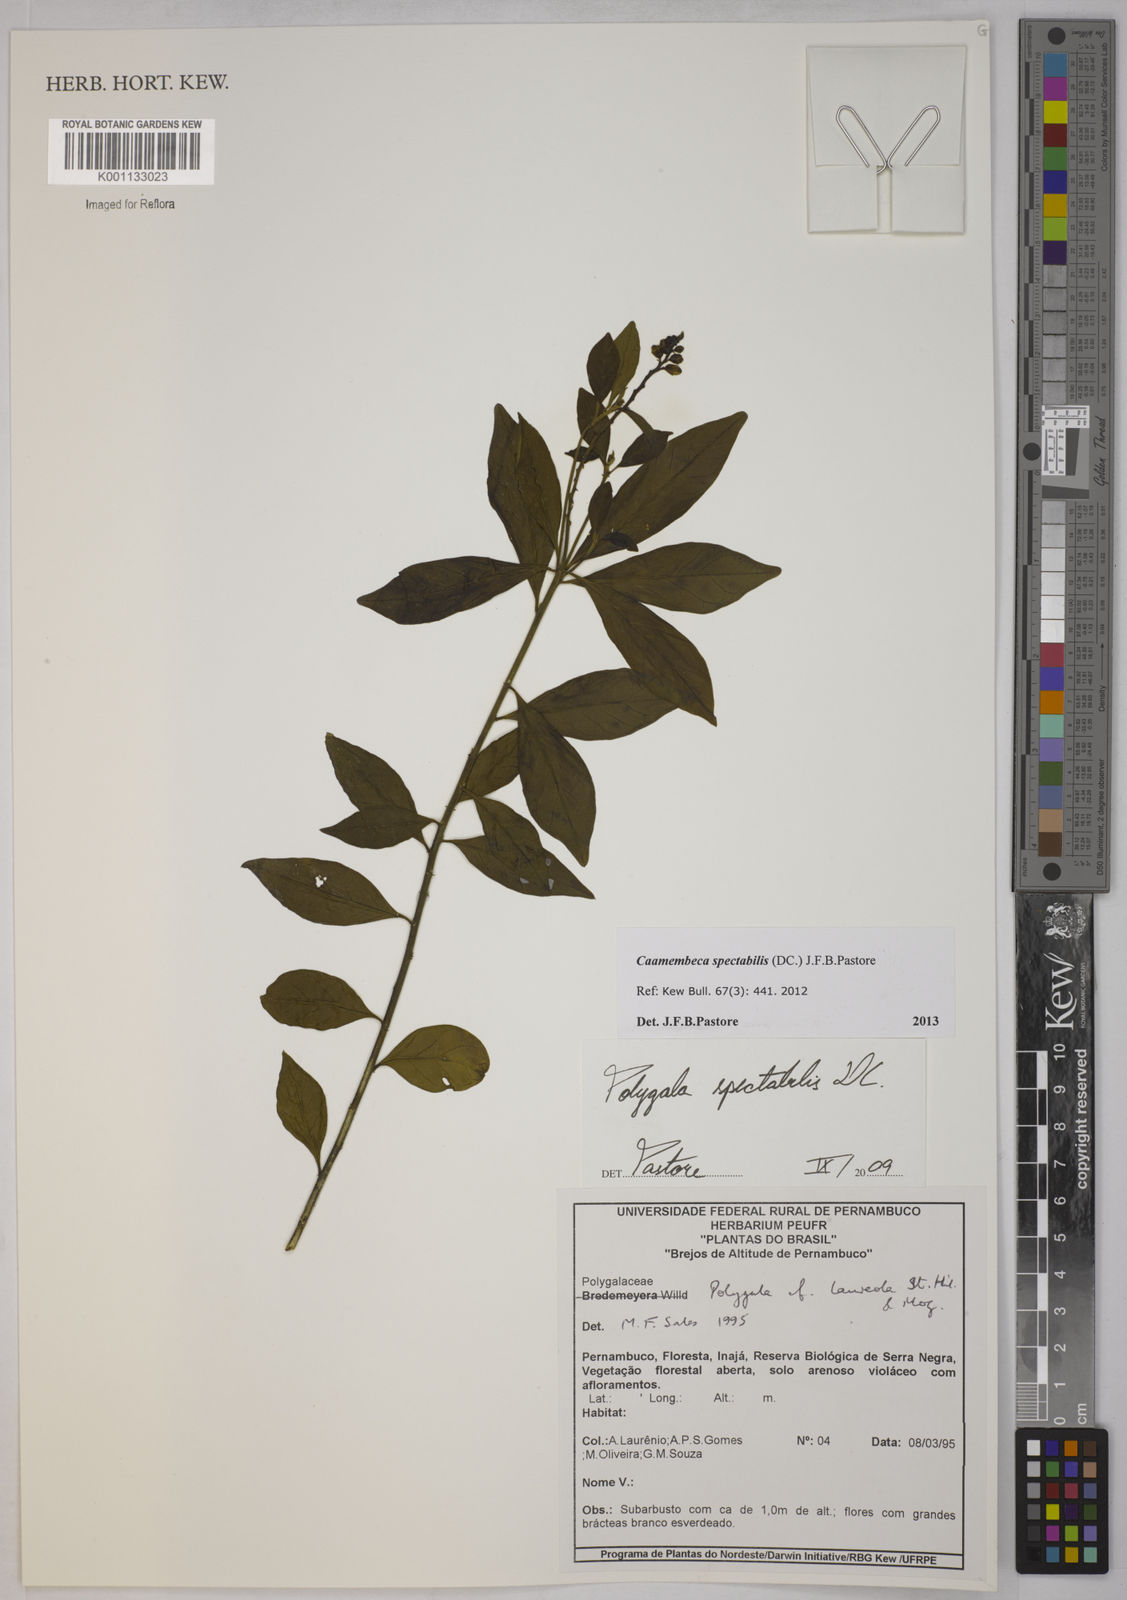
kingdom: Plantae
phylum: Tracheophyta
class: Magnoliopsida
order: Fabales
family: Polygalaceae
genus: Polygala
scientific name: Polygala
